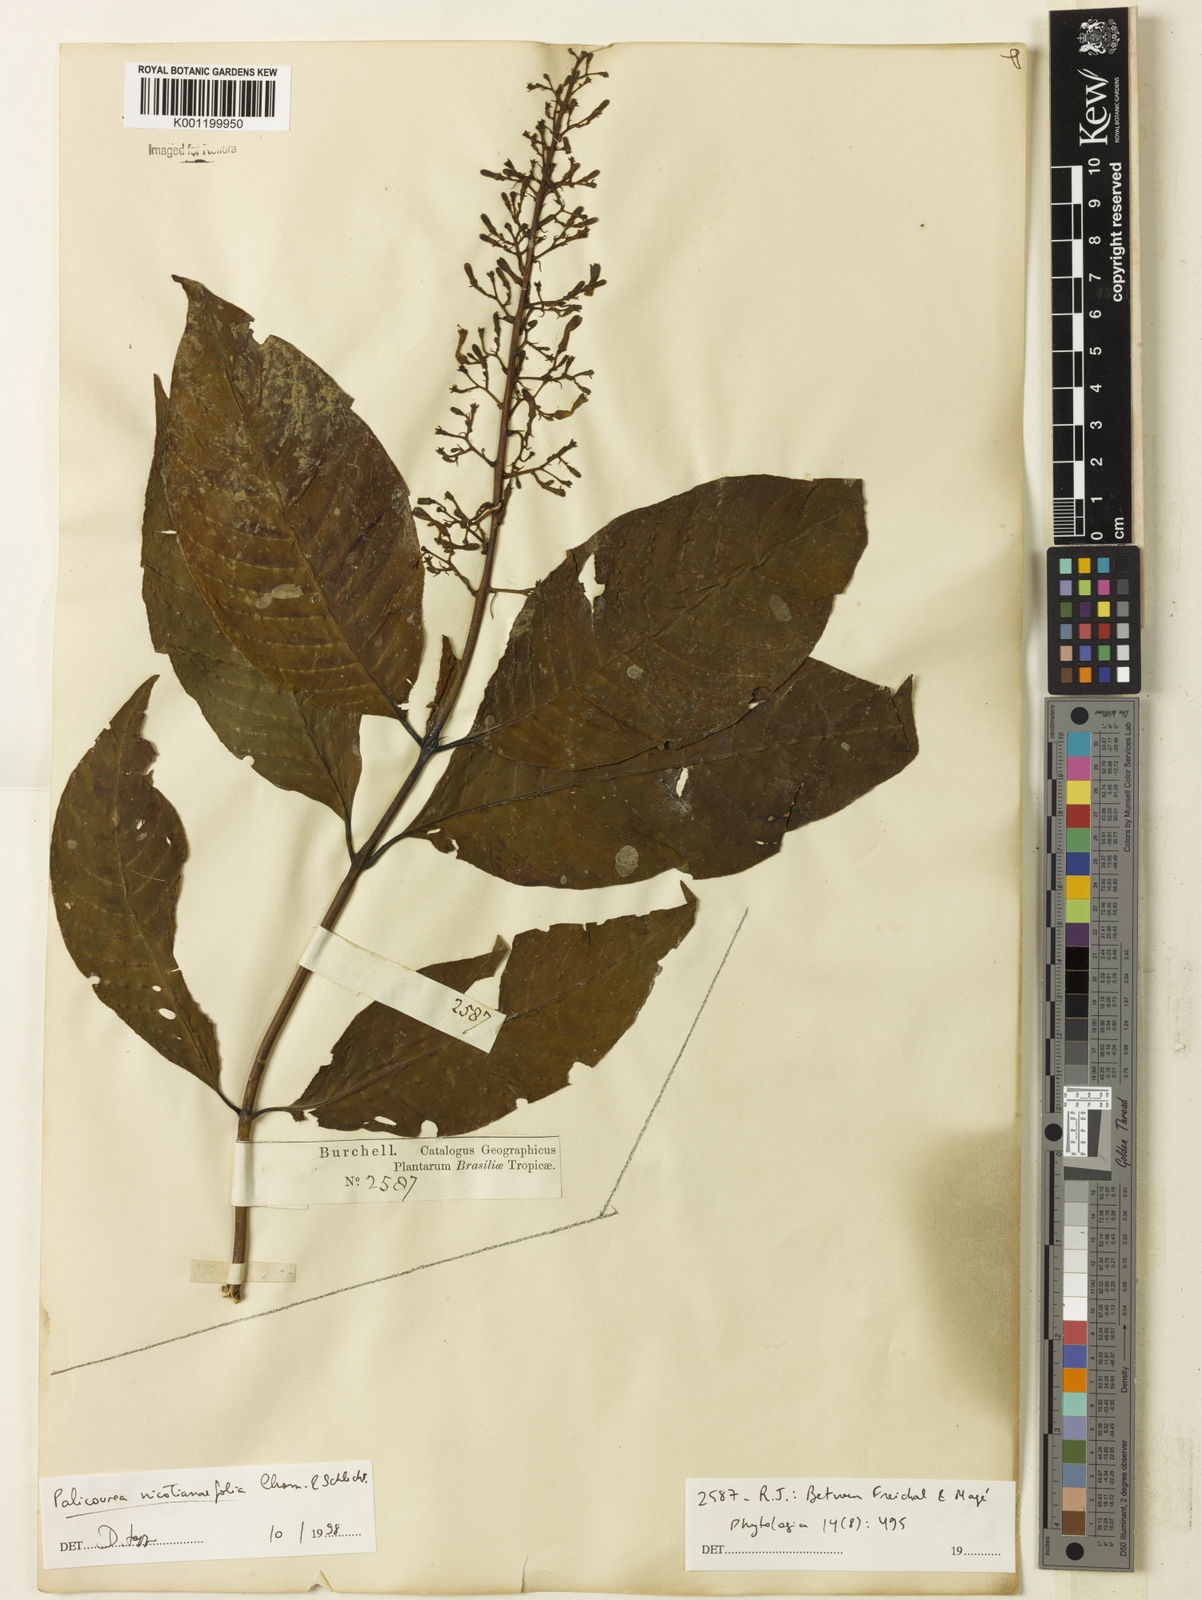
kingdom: Plantae
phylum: Tracheophyta
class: Magnoliopsida
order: Gentianales
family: Rubiaceae
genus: Palicourea
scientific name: Palicourea macrobotrys
